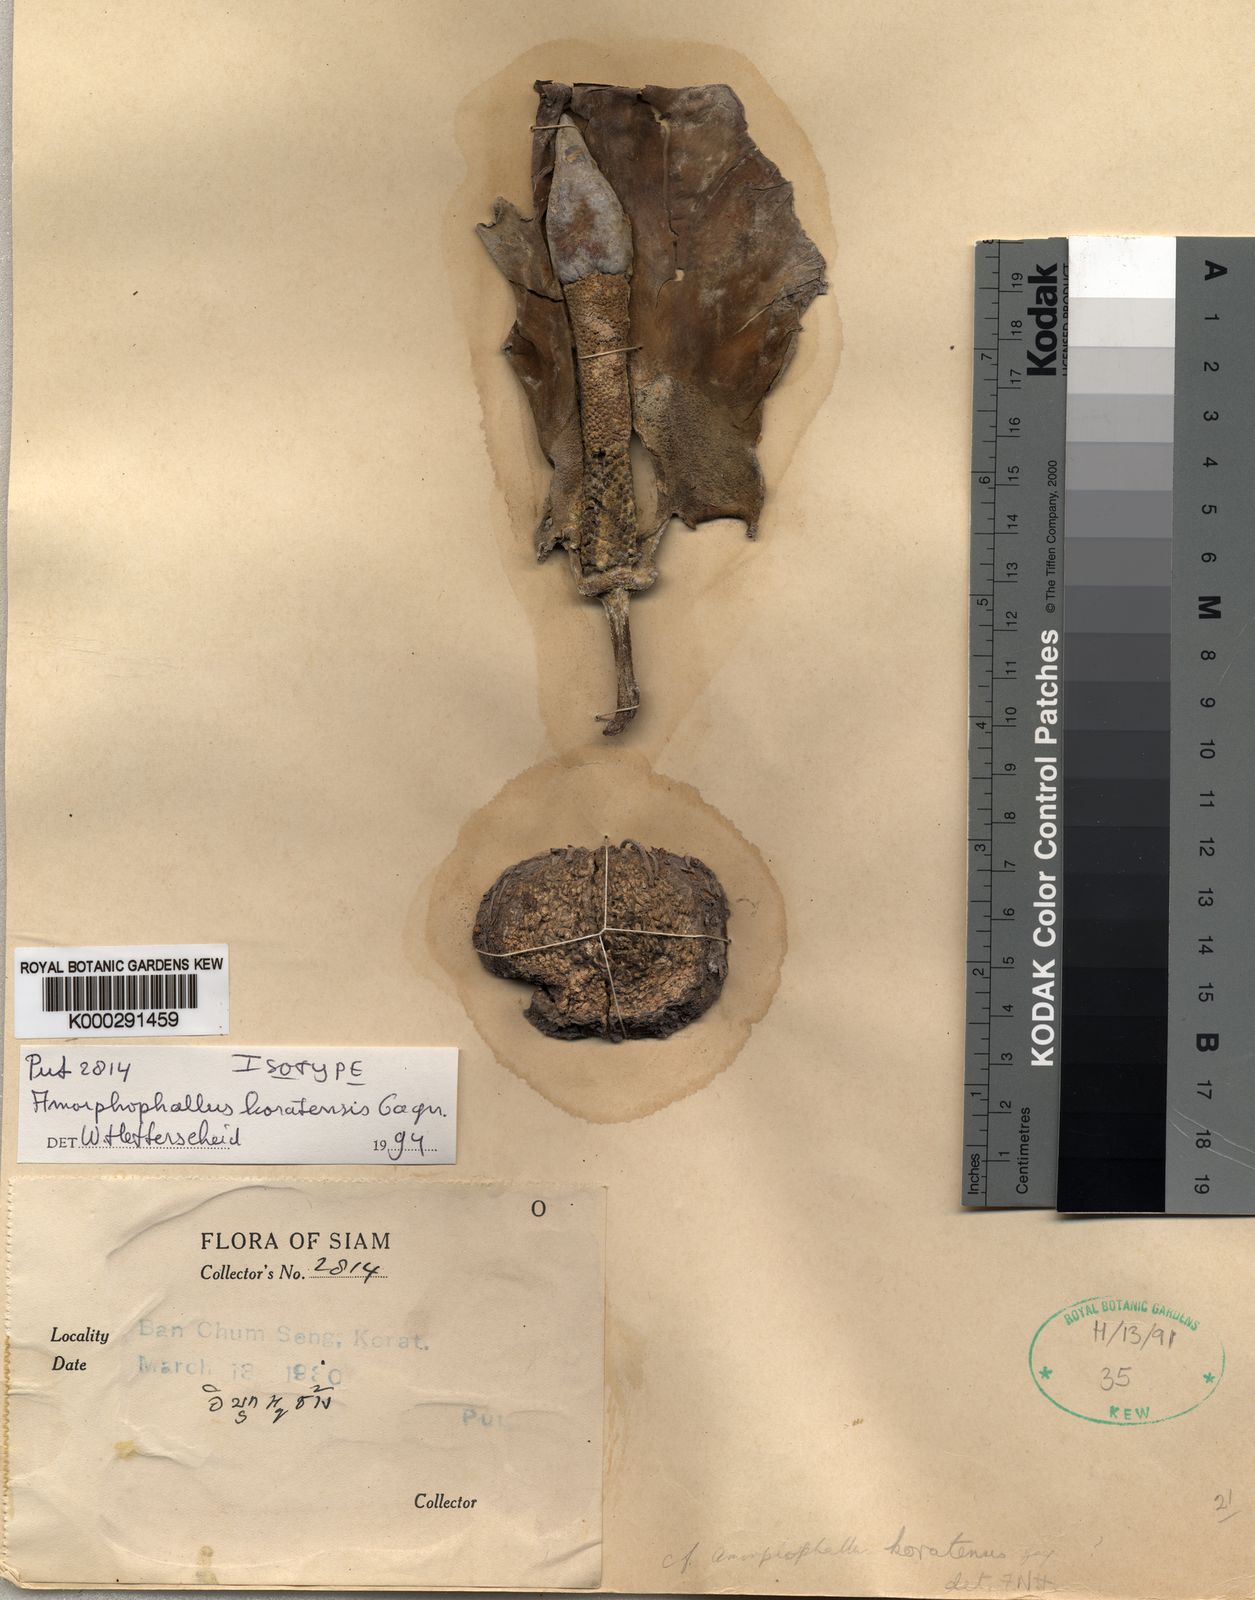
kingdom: Plantae
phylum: Tracheophyta
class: Liliopsida
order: Alismatales
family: Araceae
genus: Amorphophallus
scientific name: Amorphophallus koratensis
